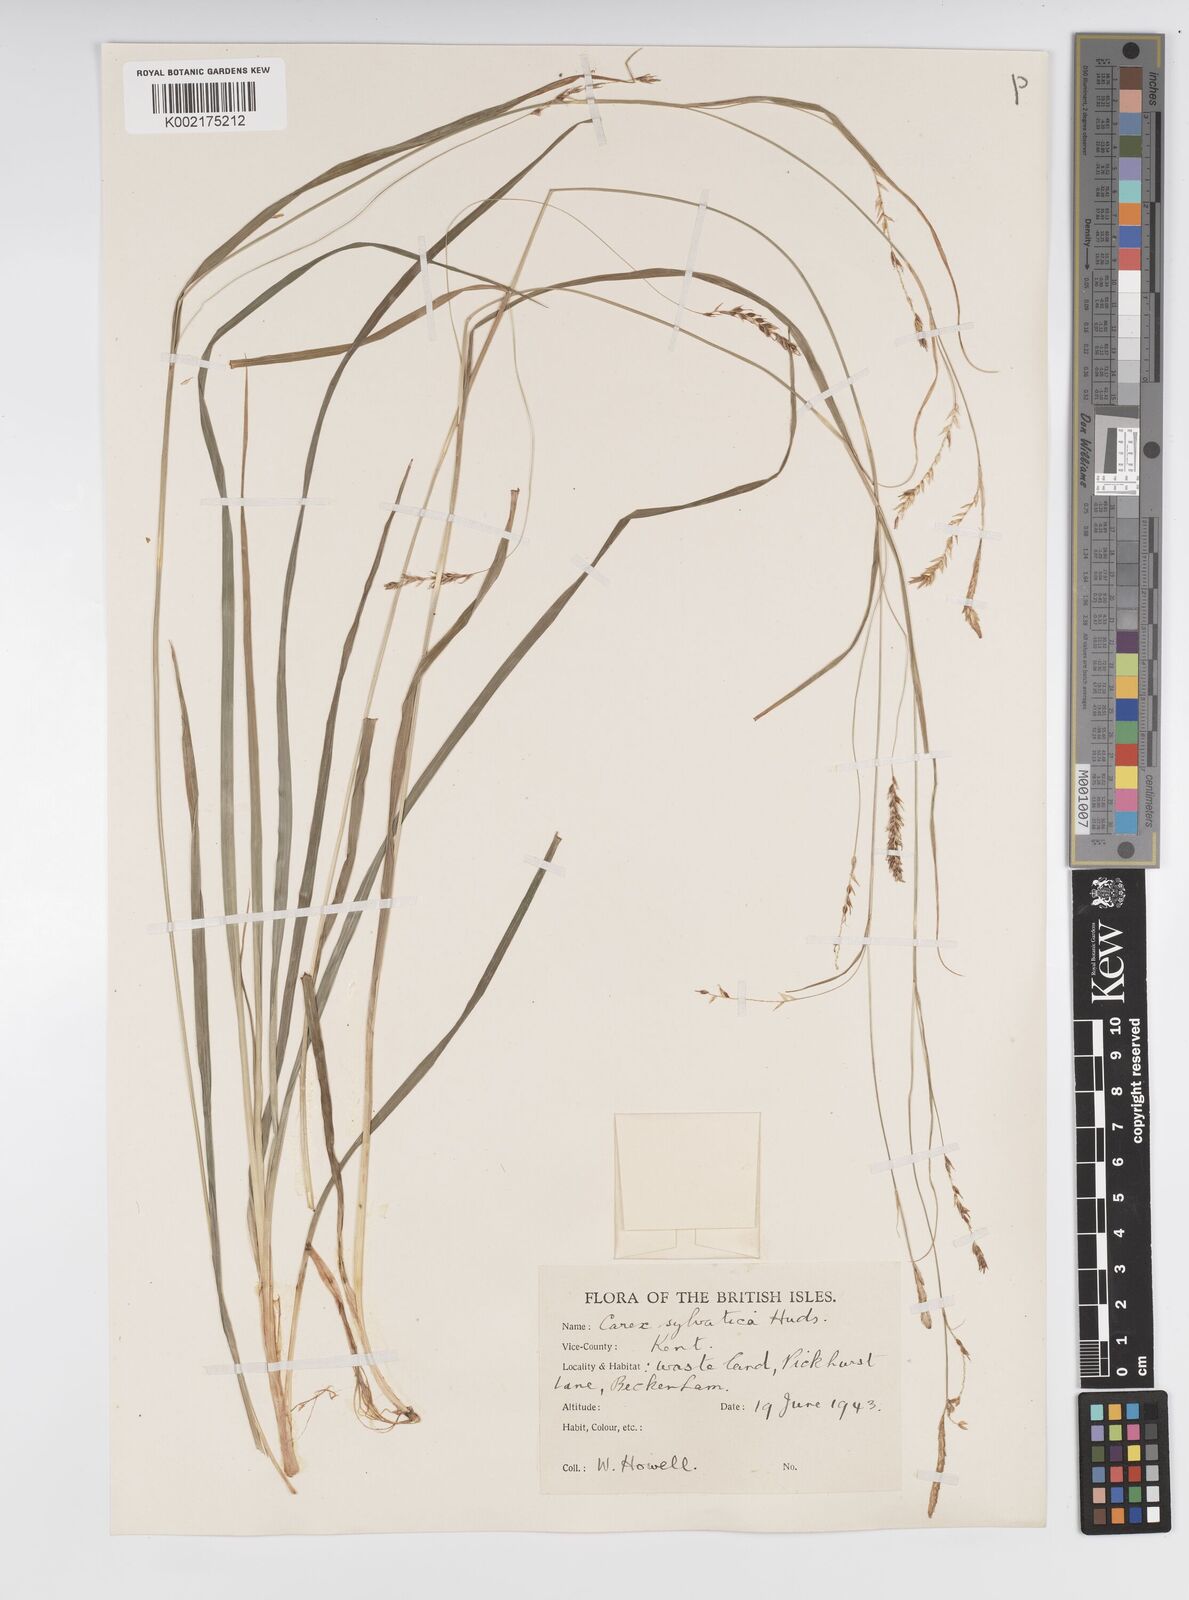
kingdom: Plantae
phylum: Tracheophyta
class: Liliopsida
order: Poales
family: Cyperaceae
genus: Carex
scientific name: Carex sylvatica
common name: Wood-sedge
